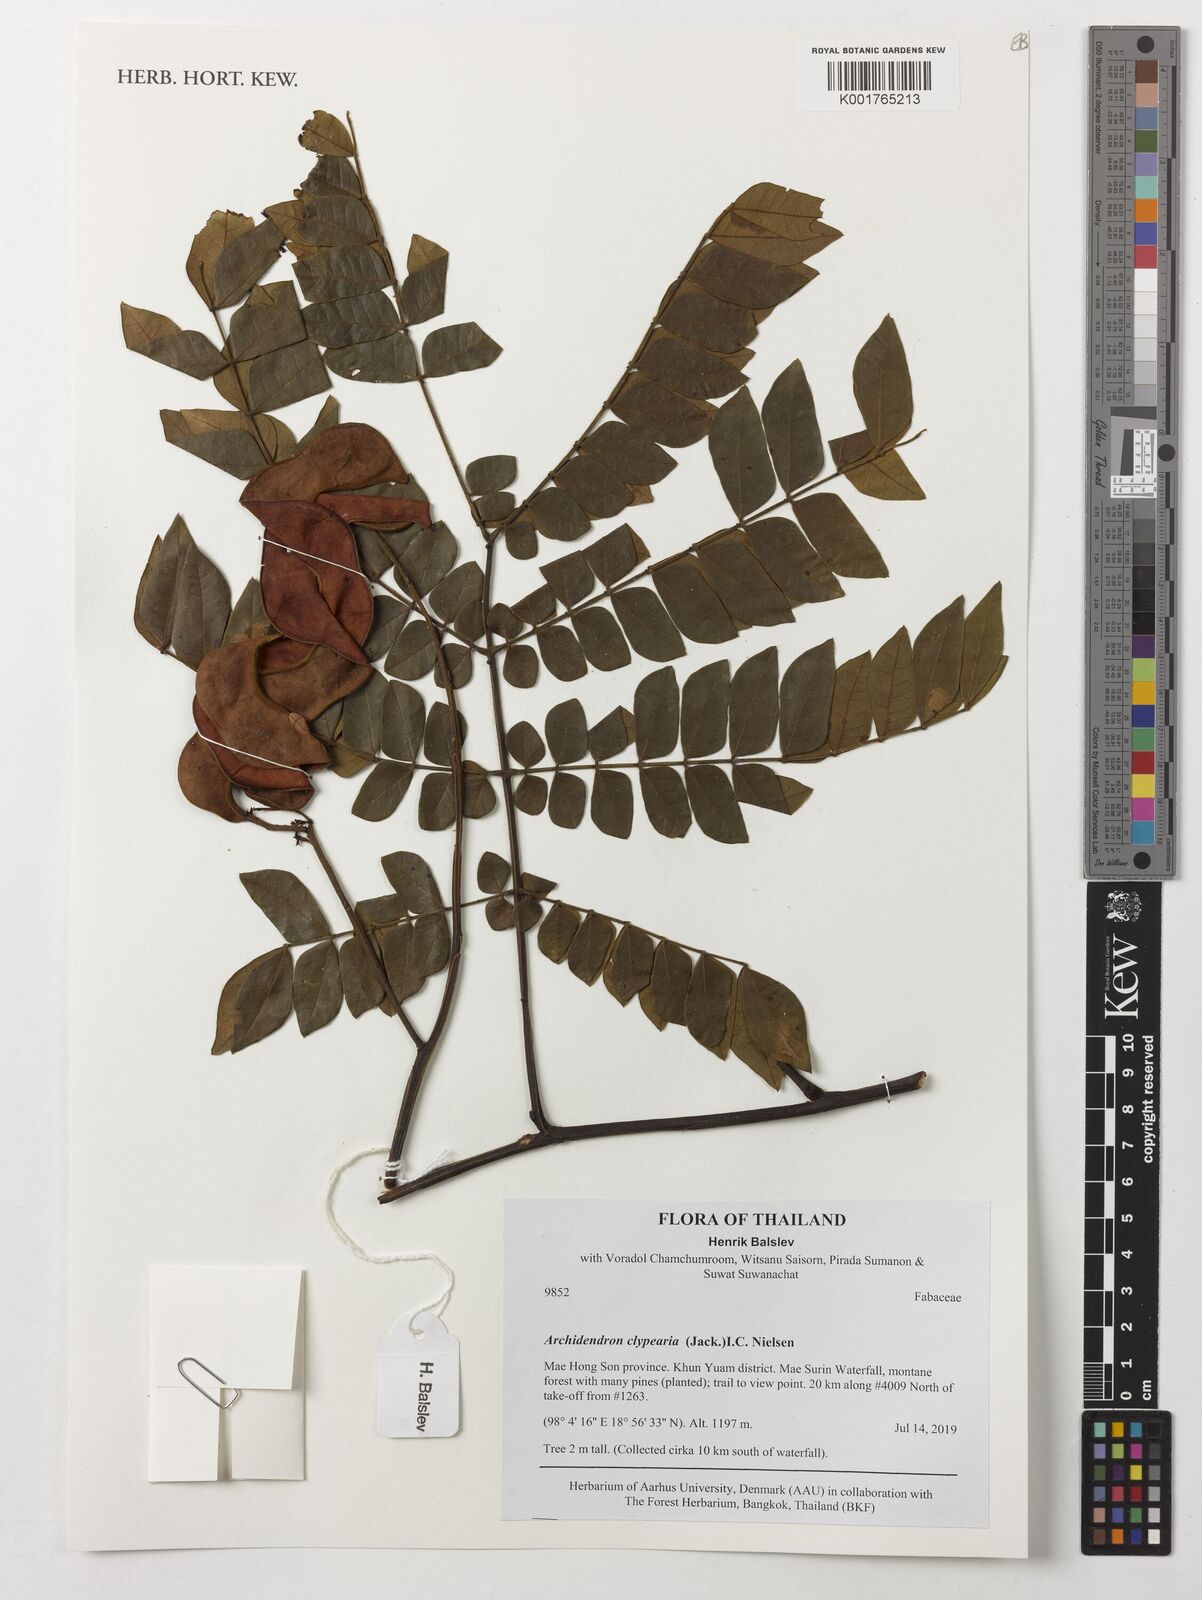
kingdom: Plantae
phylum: Tracheophyta
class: Magnoliopsida
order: Fabales
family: Fabaceae
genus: Archidendron
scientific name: Archidendron clypearia
